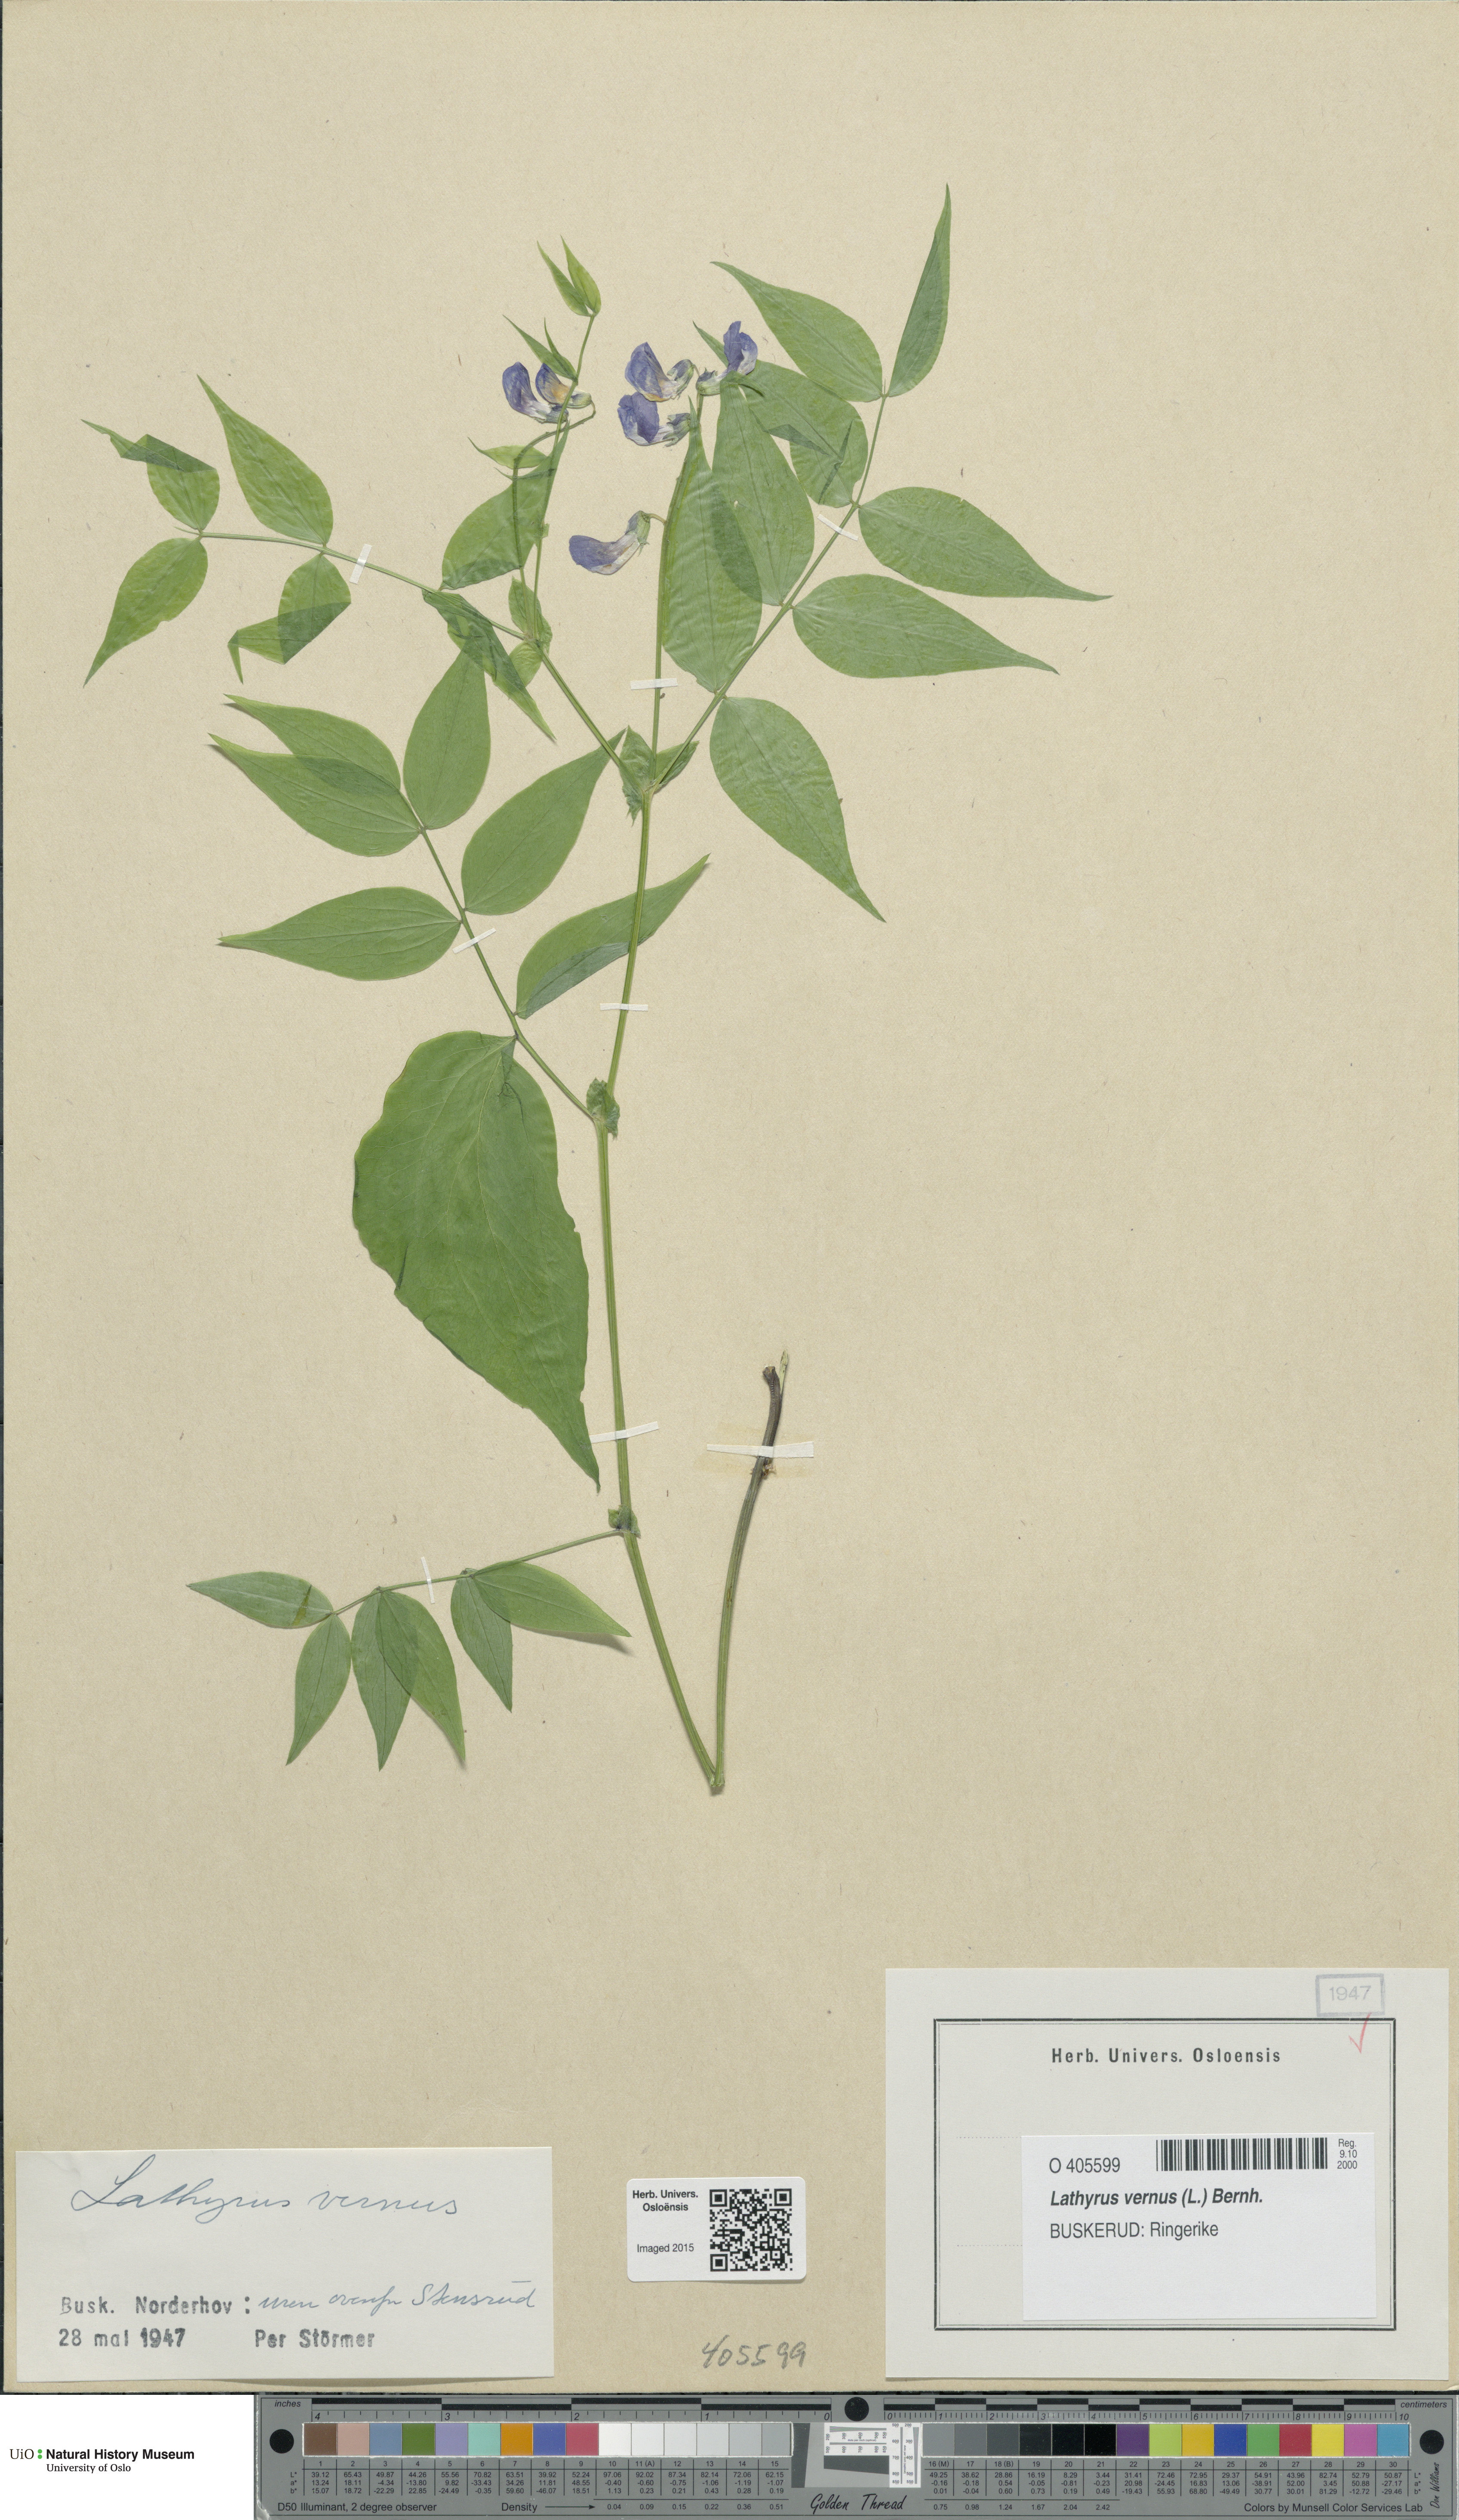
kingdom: Plantae
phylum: Tracheophyta
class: Magnoliopsida
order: Fabales
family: Fabaceae
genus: Lathyrus
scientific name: Lathyrus vernus
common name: Spring pea
